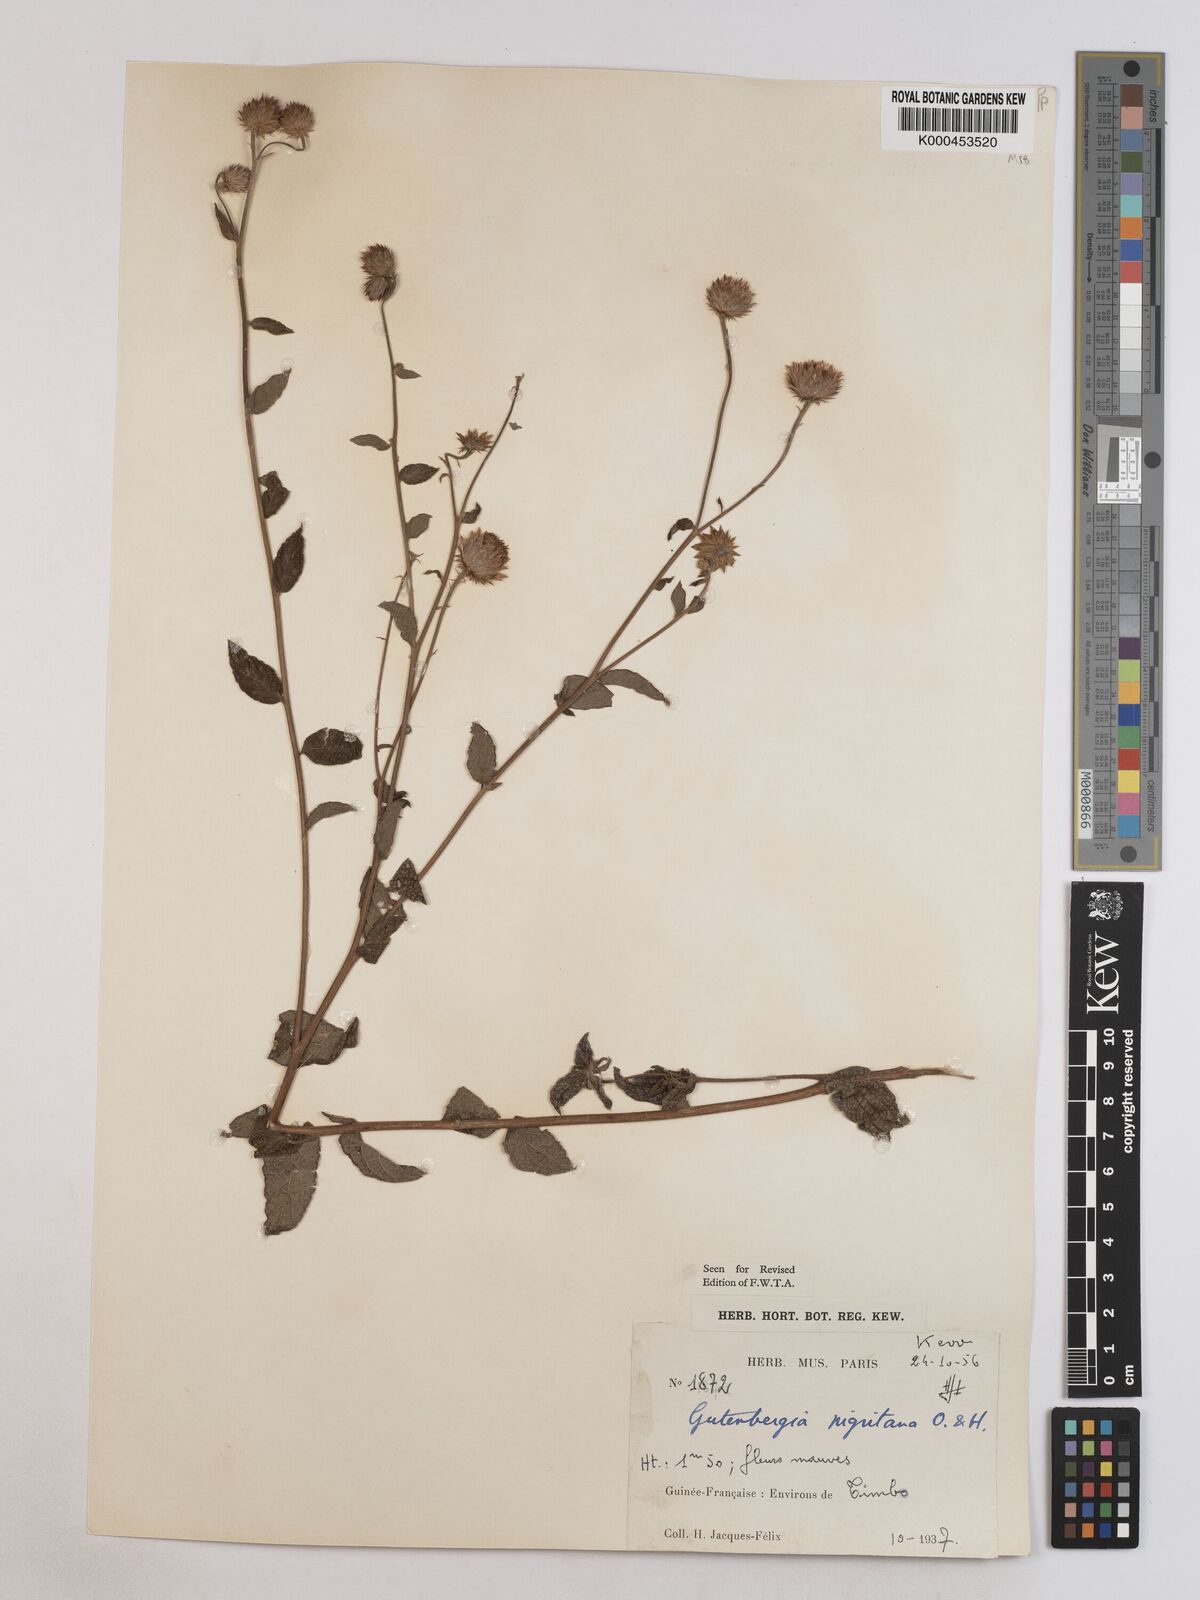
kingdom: Plantae
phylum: Tracheophyta
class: Magnoliopsida
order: Asterales
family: Asteraceae
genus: Kinghamia
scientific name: Kinghamia nigritana
